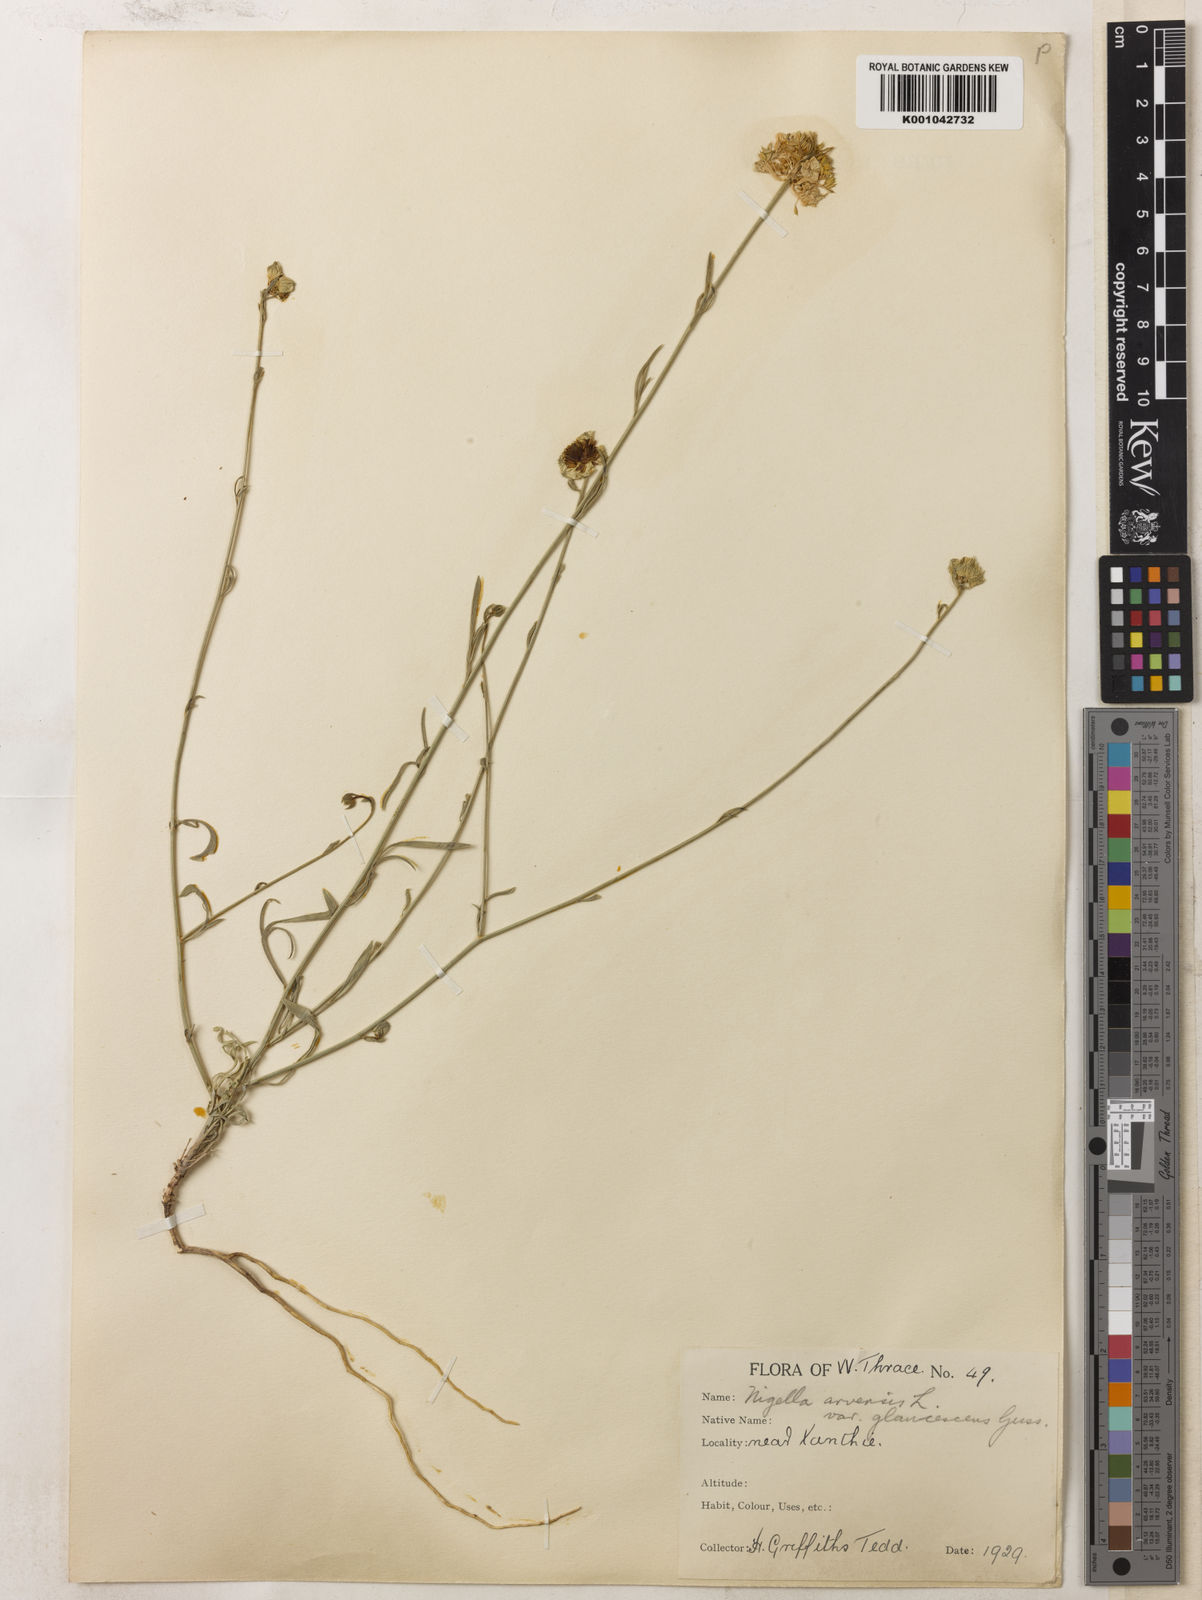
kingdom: Plantae
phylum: Tracheophyta
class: Magnoliopsida
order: Ranunculales
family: Ranunculaceae
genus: Nigella
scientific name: Nigella arvensis
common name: Wild fennel-flower
